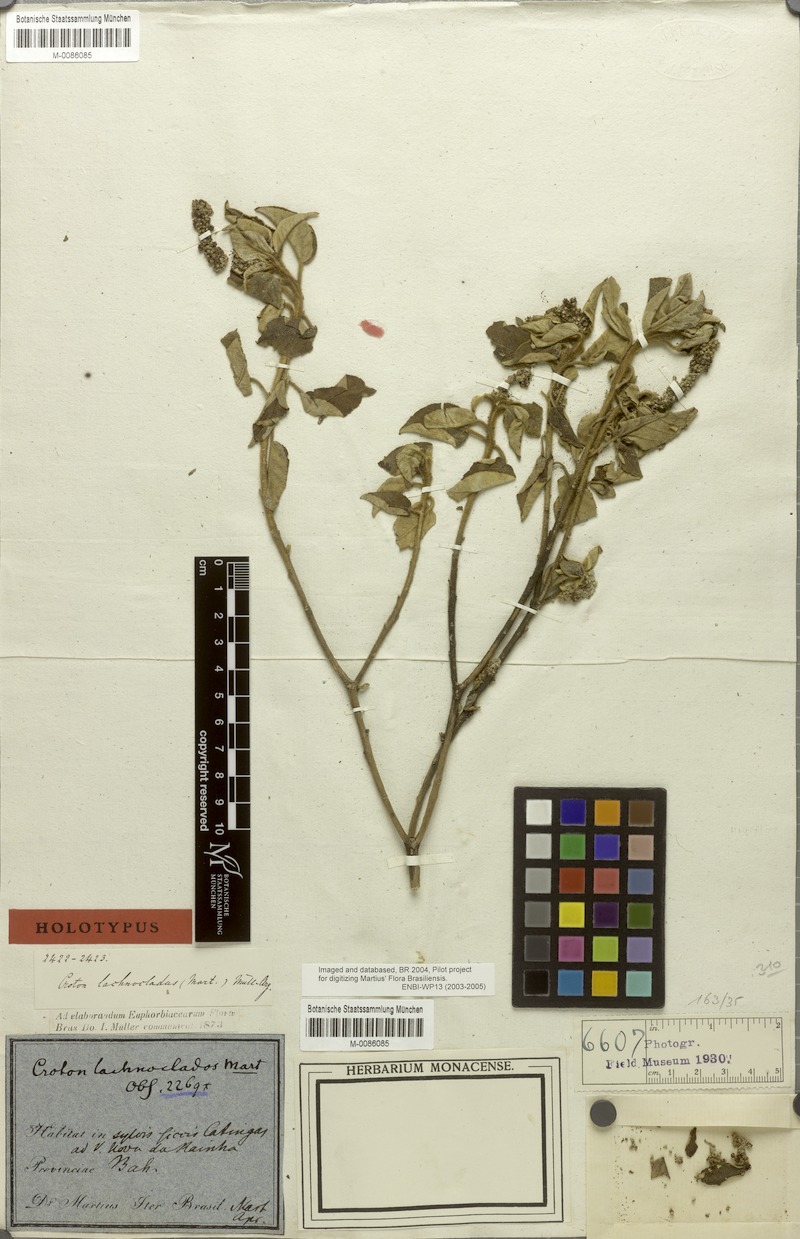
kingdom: Plantae
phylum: Tracheophyta
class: Magnoliopsida
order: Malpighiales
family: Euphorbiaceae
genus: Croton
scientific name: Croton lachnocladus
